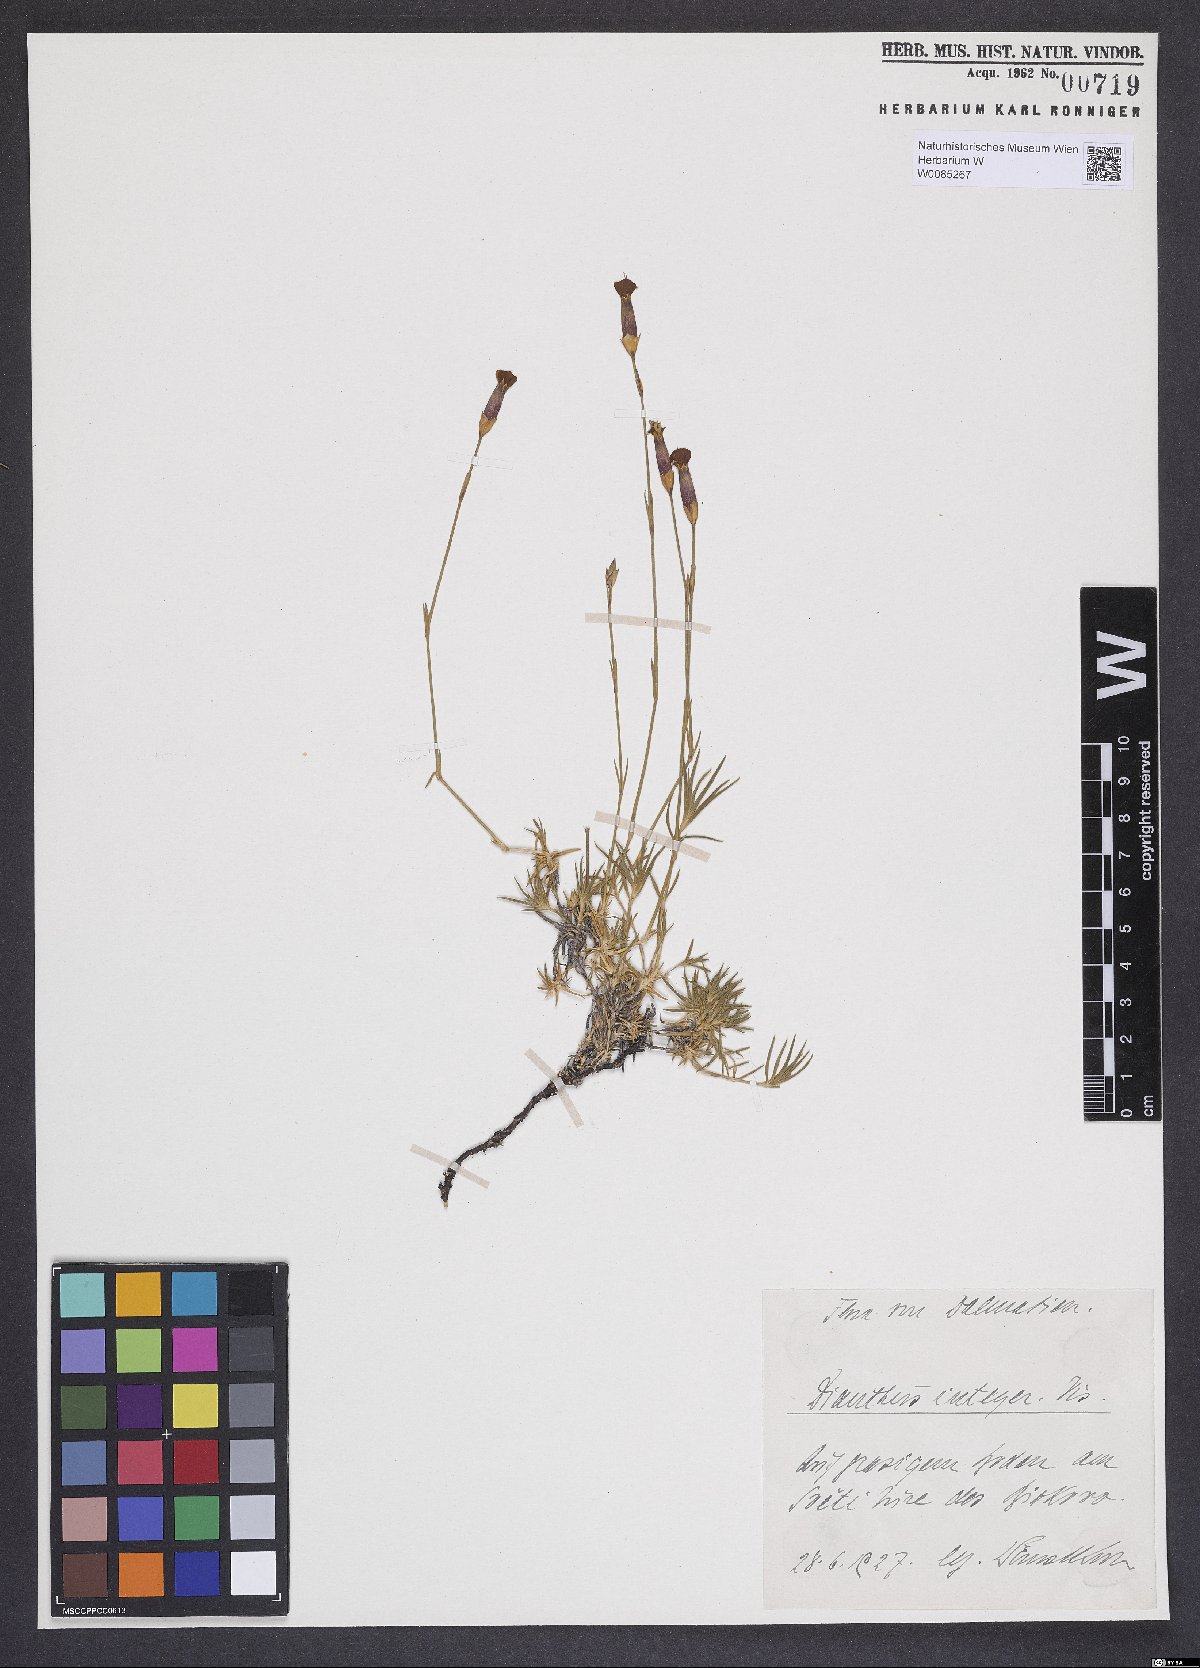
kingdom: Plantae
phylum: Tracheophyta
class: Magnoliopsida
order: Caryophyllales
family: Caryophyllaceae
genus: Dianthus
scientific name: Dianthus petraeus
